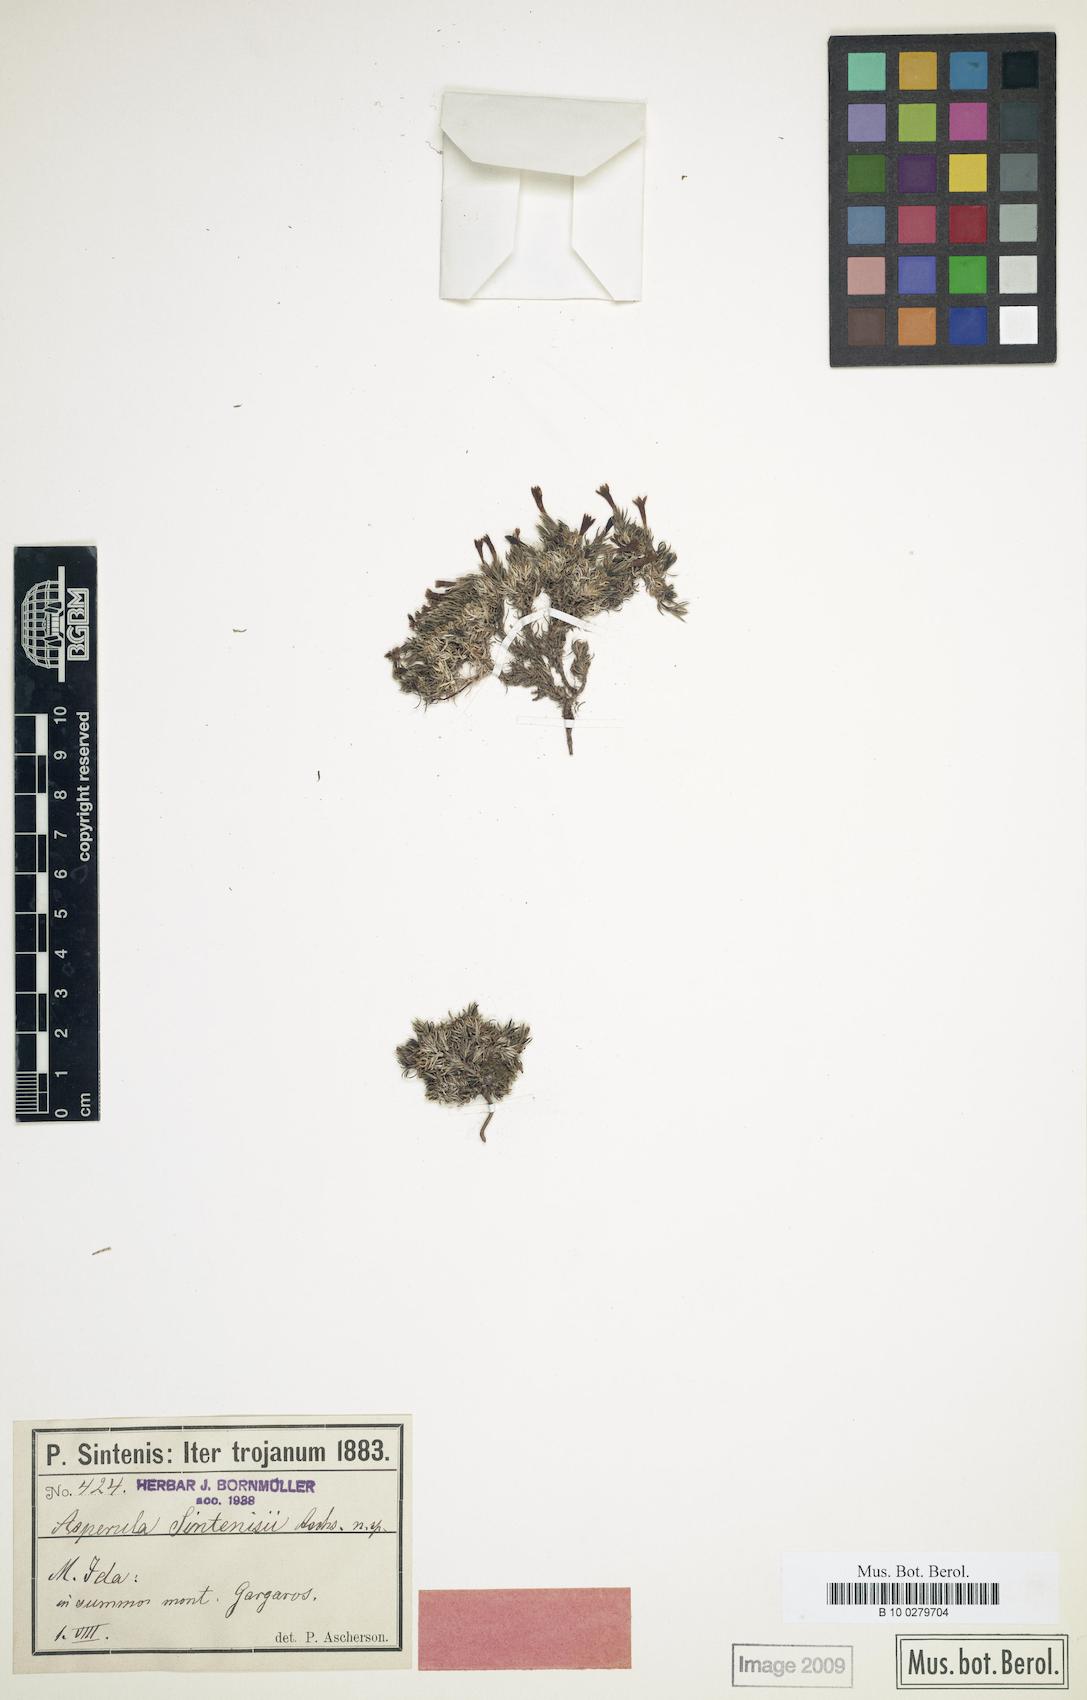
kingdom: Plantae
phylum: Tracheophyta
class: Magnoliopsida
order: Gentianales
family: Rubiaceae
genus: Cynanchica
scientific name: Cynanchica sintenisii
